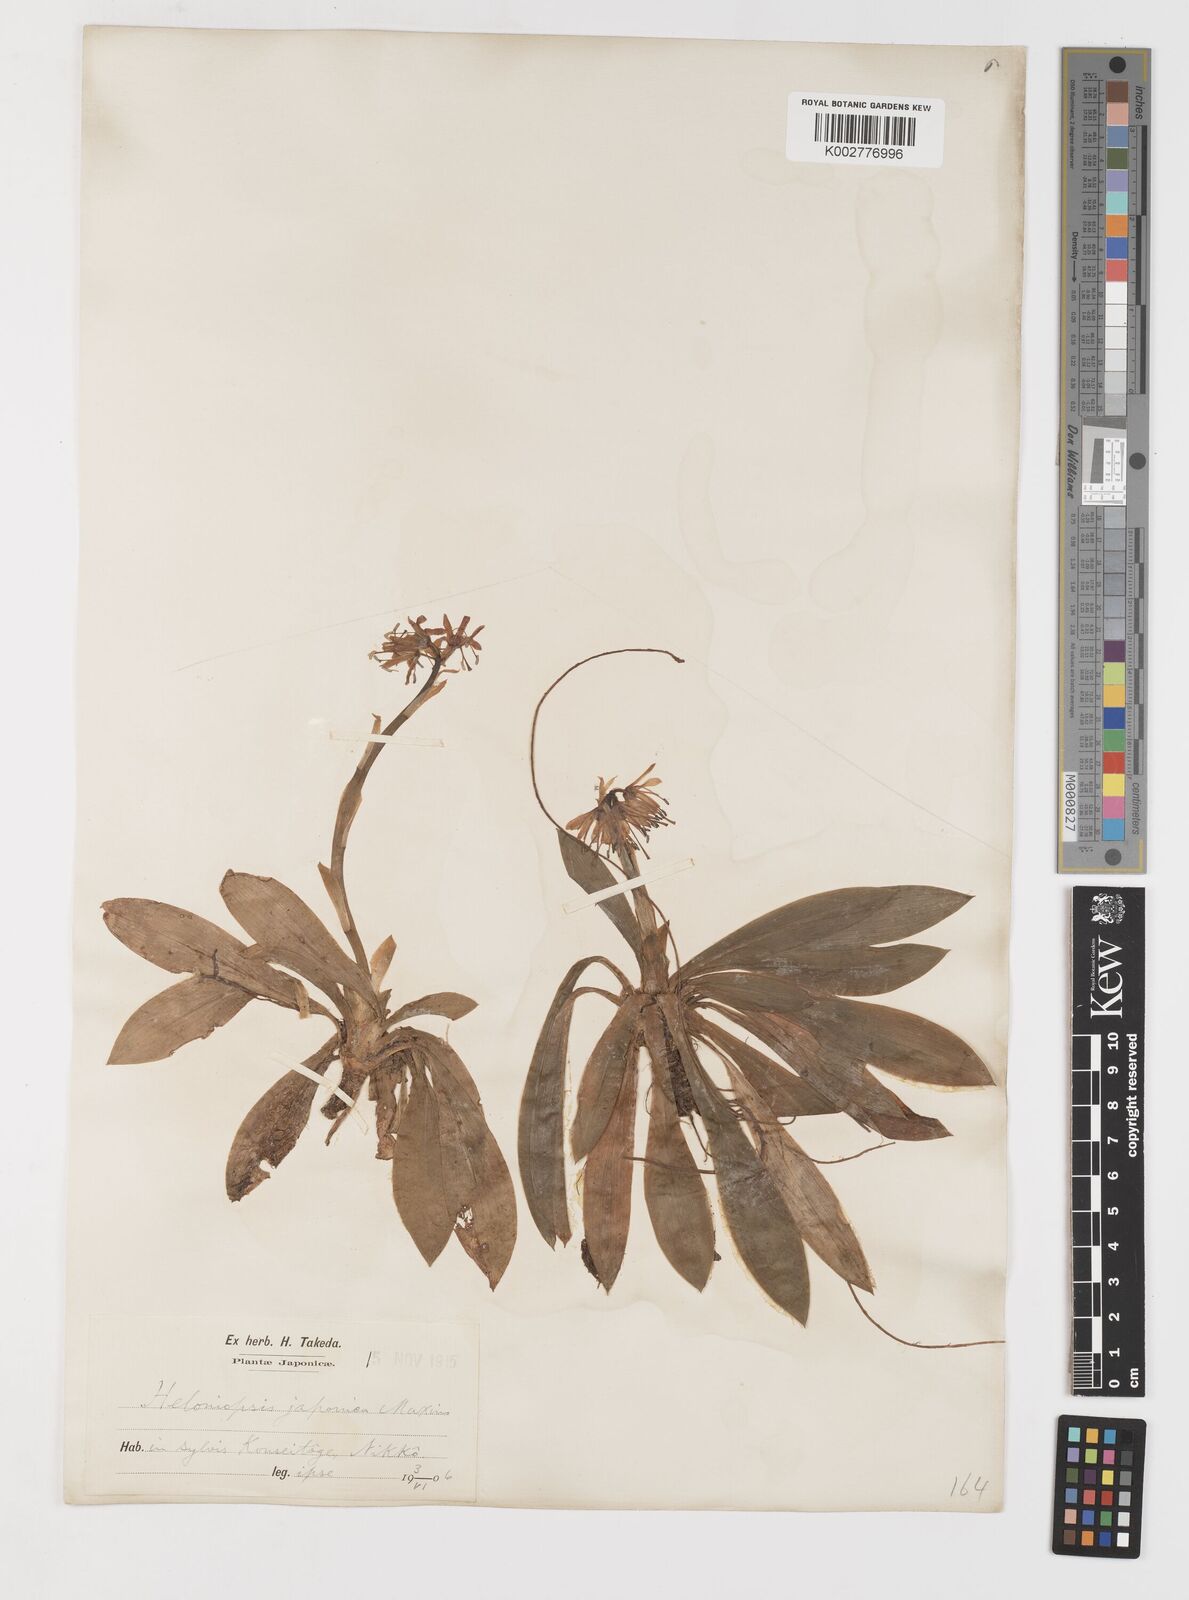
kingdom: Plantae
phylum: Tracheophyta
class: Liliopsida
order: Liliales
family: Melanthiaceae
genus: Helonias
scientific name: Helonias orientalis
